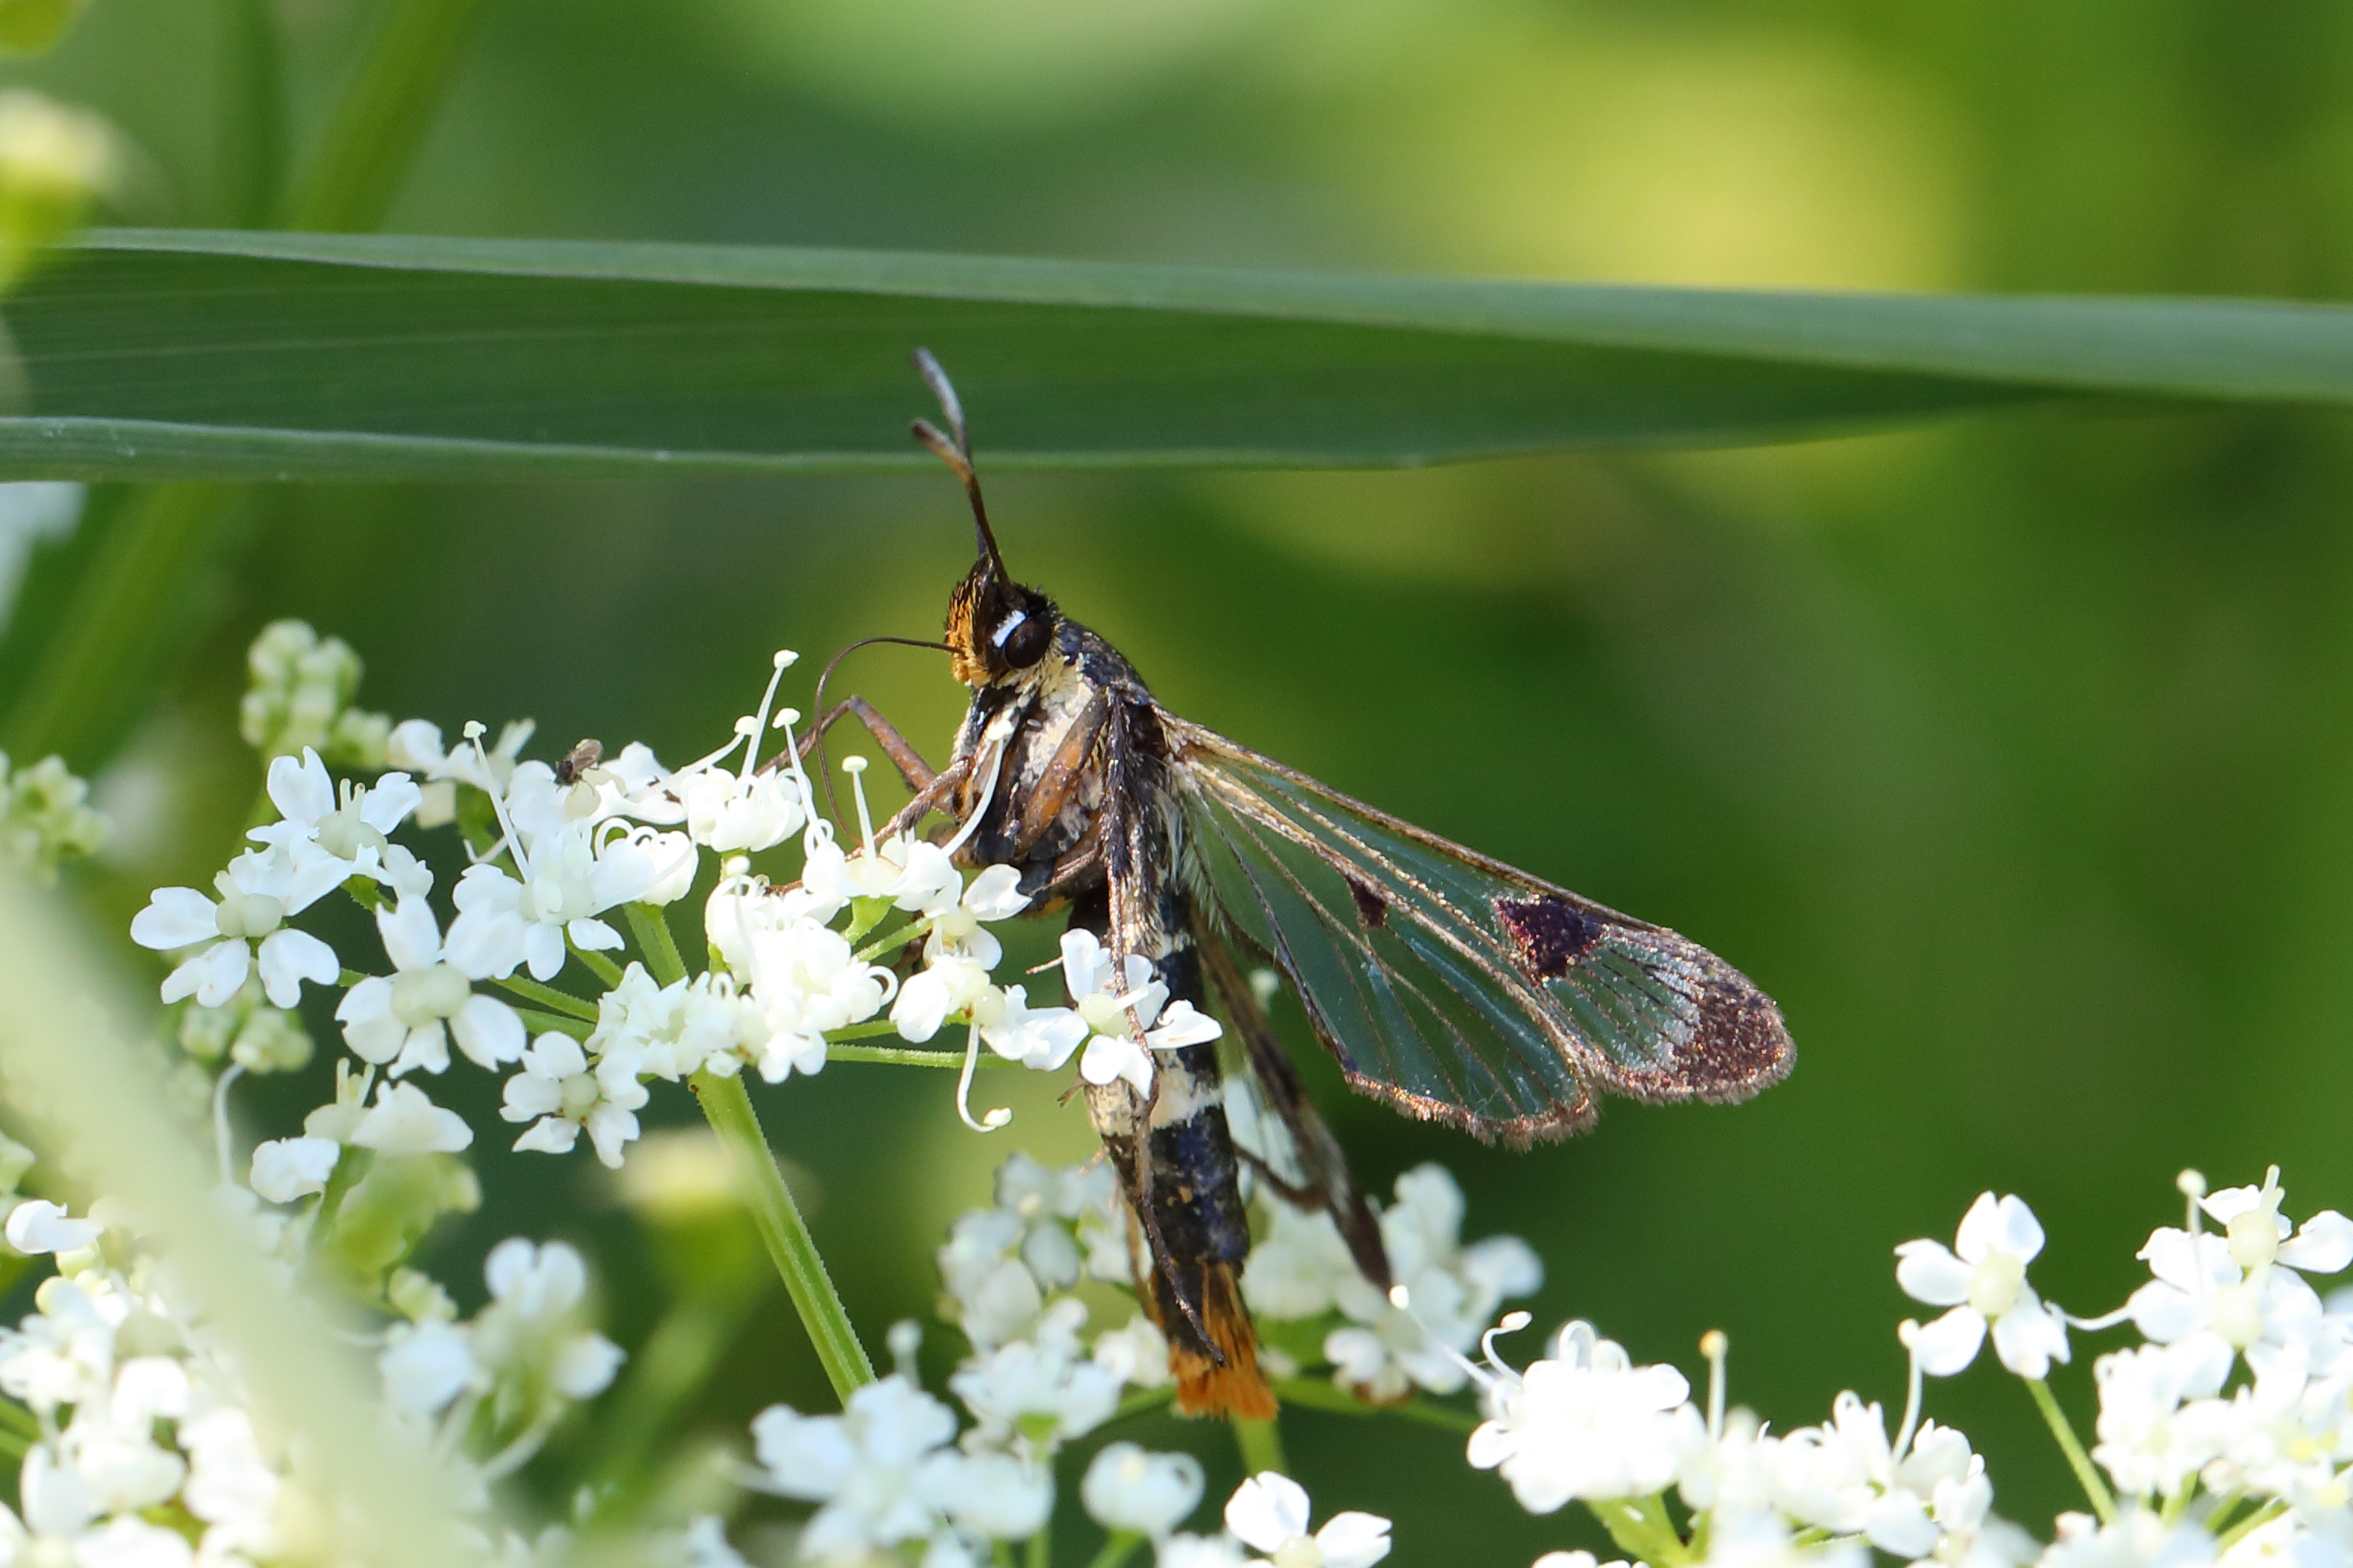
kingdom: Animalia
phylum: Arthropoda
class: Insecta
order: Lepidoptera
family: Sesiidae
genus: Synanthedon
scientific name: Synanthedon scoliaeformis
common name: Welsh clearwing
